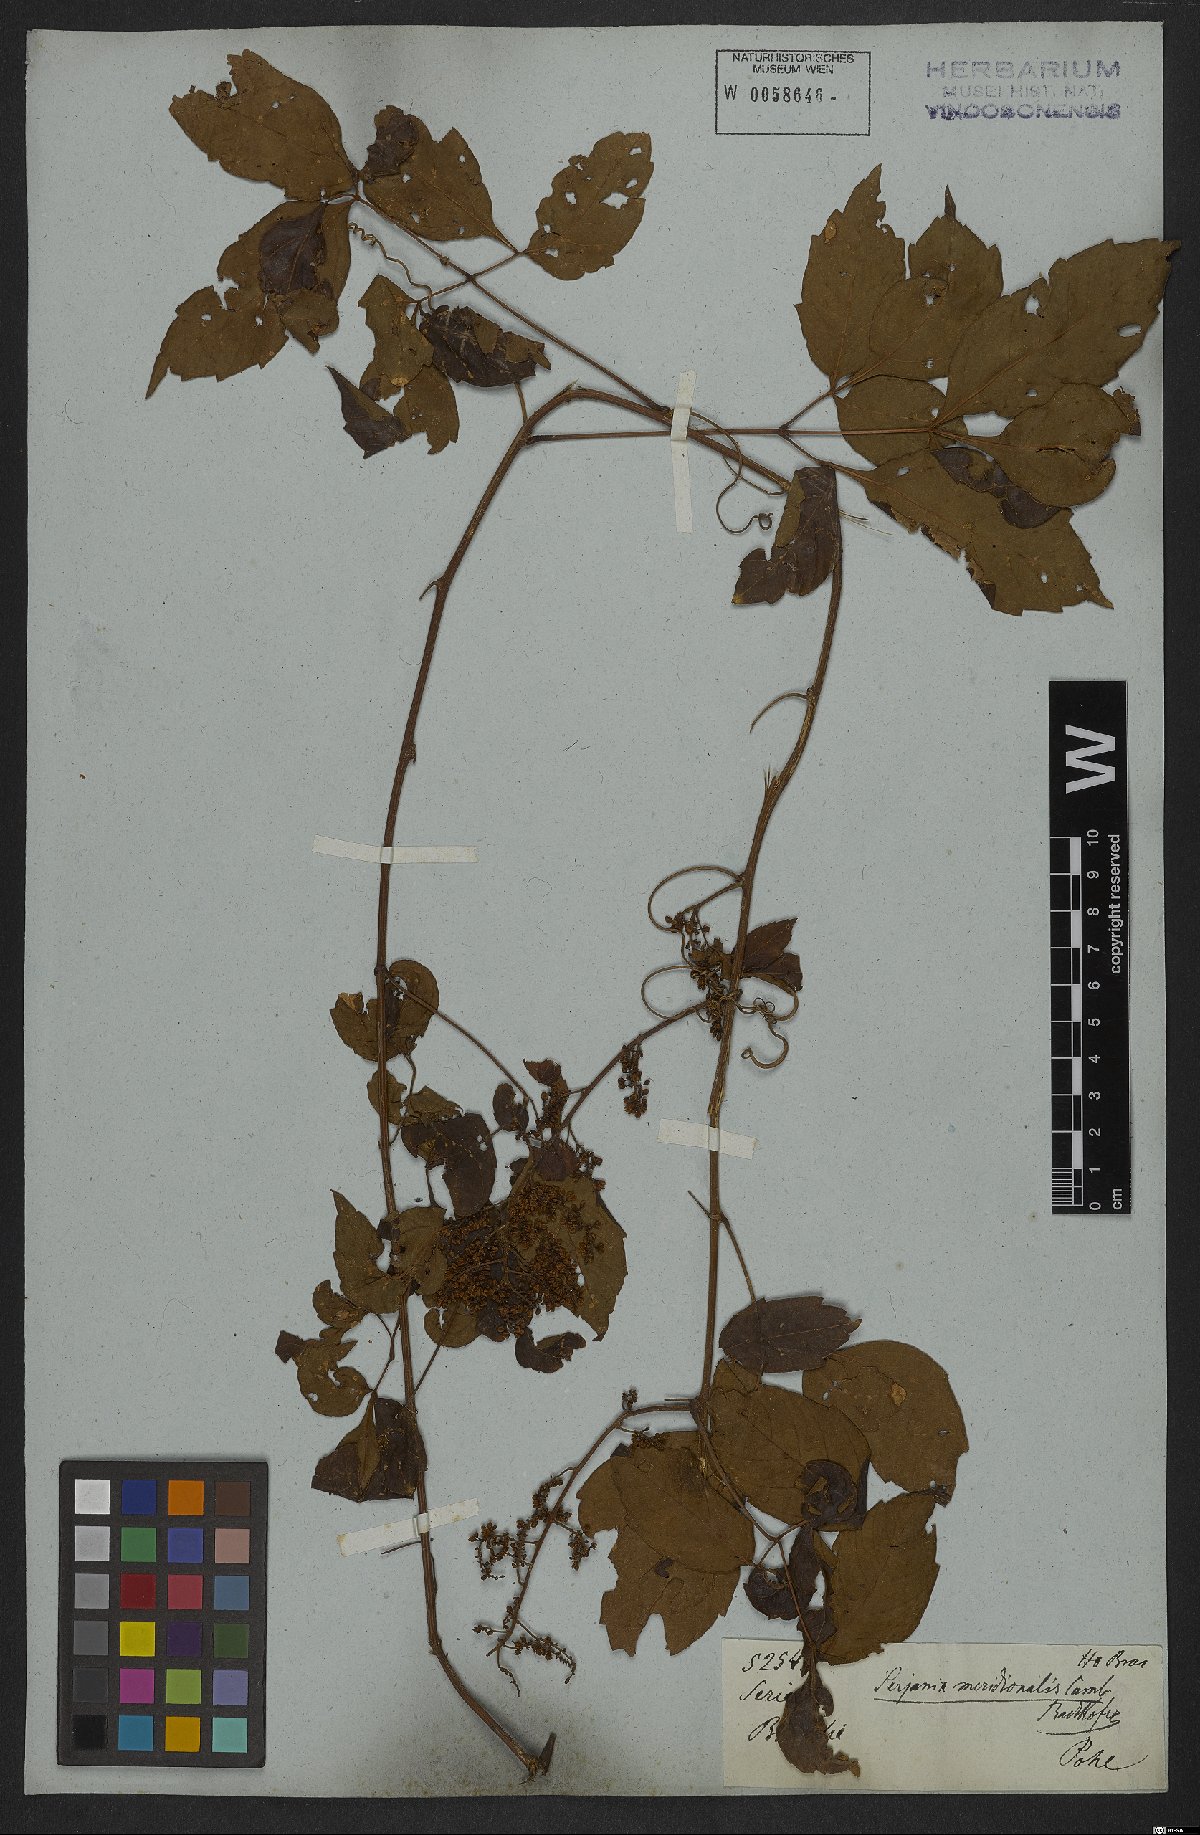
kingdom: Plantae
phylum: Tracheophyta
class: Magnoliopsida
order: Sapindales
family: Sapindaceae
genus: Serjania
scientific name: Serjania meridionalis
